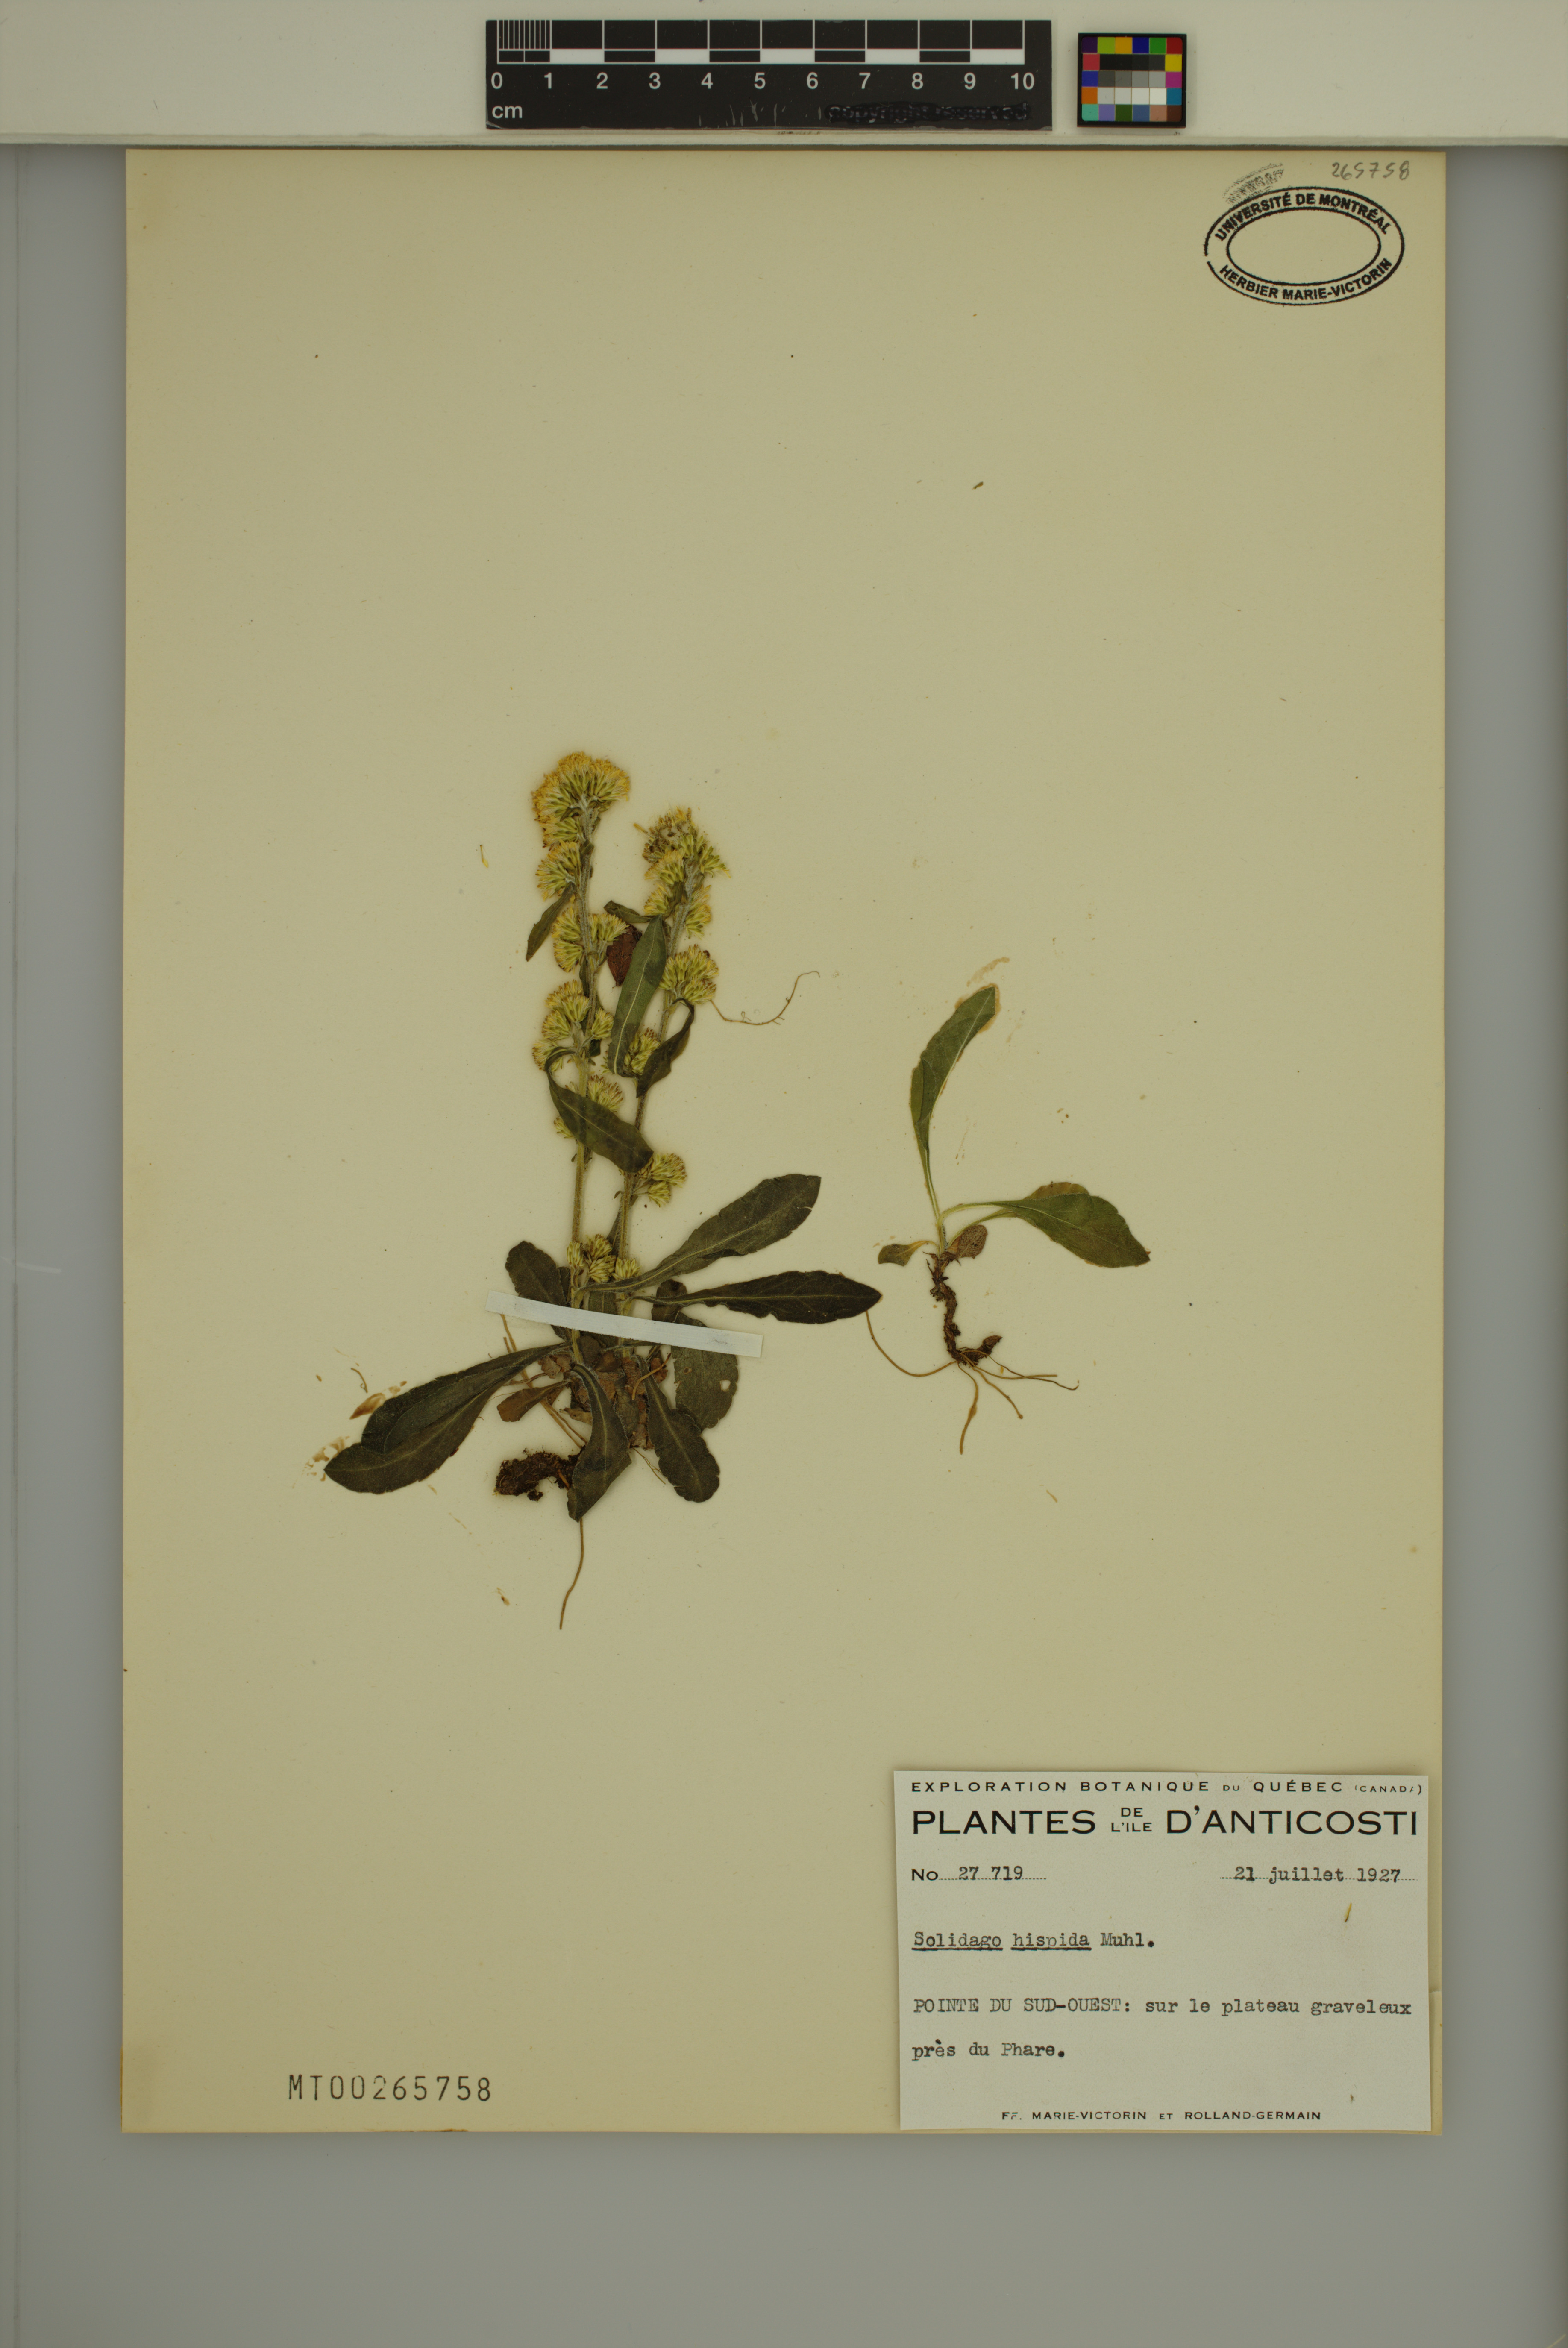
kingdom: Plantae
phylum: Tracheophyta
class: Magnoliopsida
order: Asterales
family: Asteraceae
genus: Solidago
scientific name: Solidago hispida
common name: Hairy goldenrod
